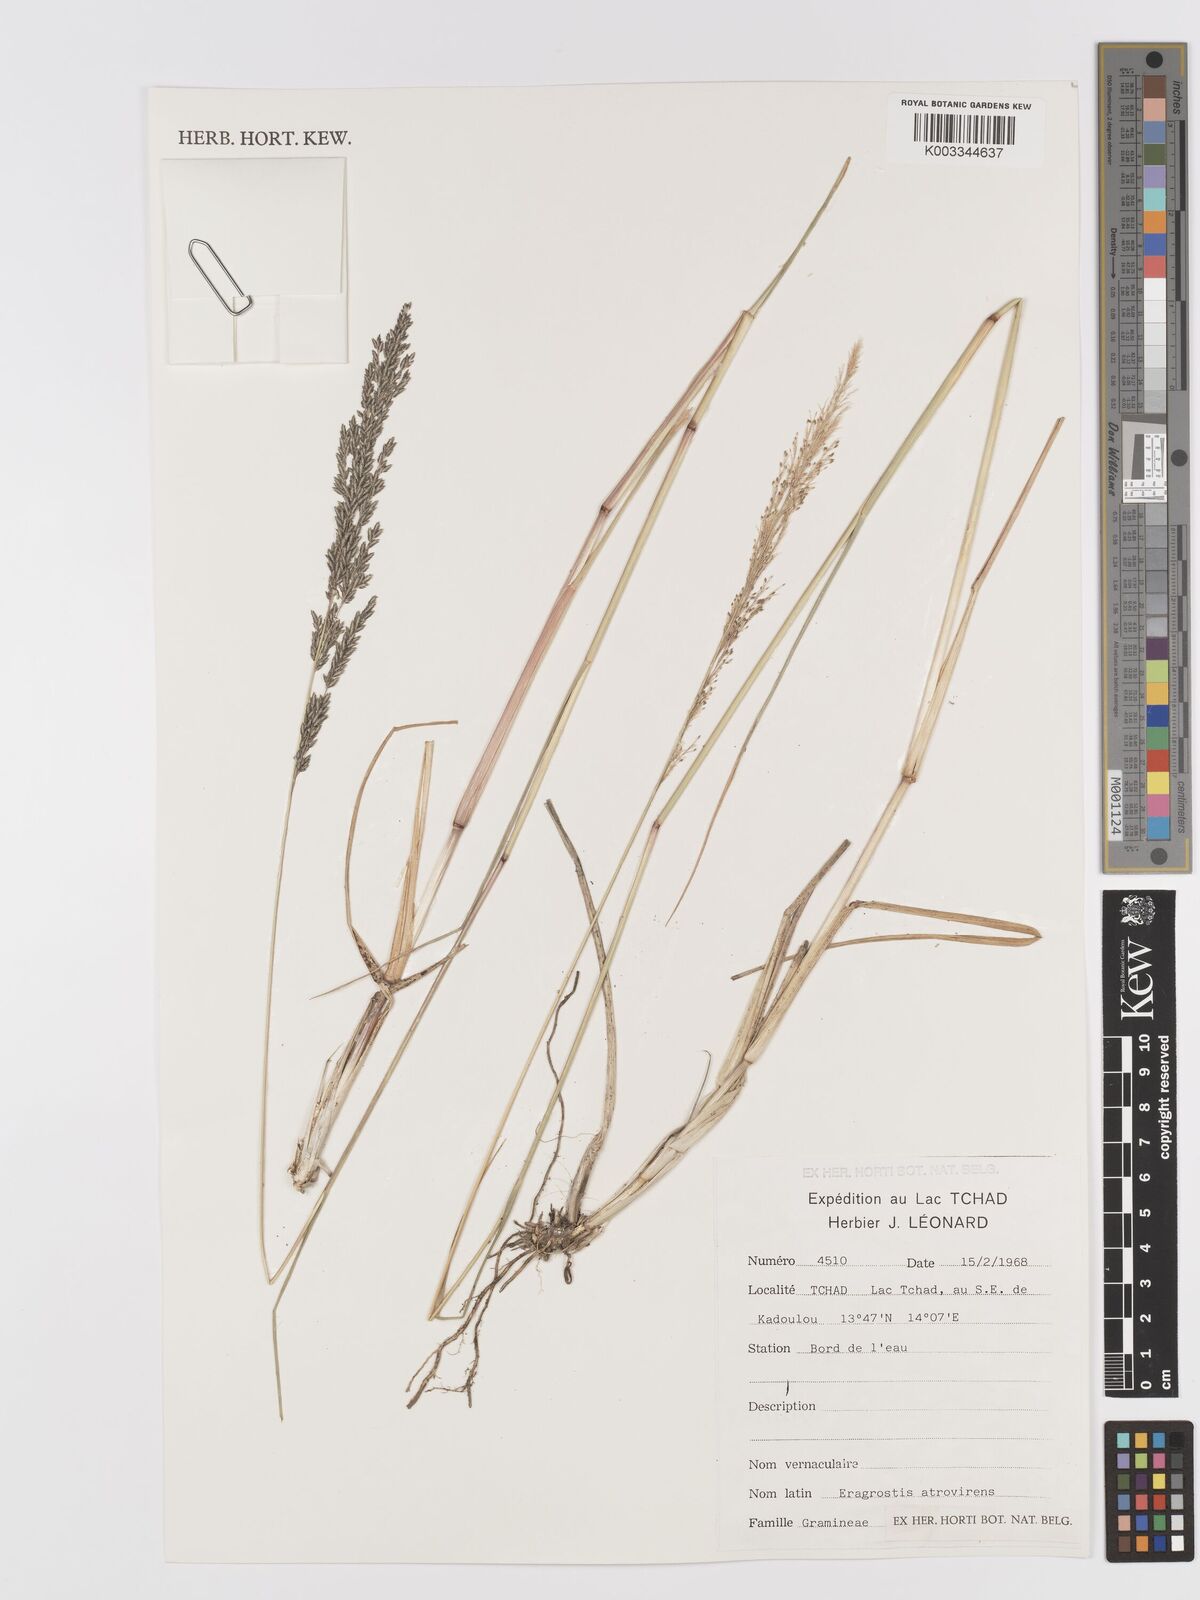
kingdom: Plantae
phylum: Tracheophyta
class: Liliopsida
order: Poales
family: Poaceae
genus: Eragrostis
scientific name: Eragrostis
